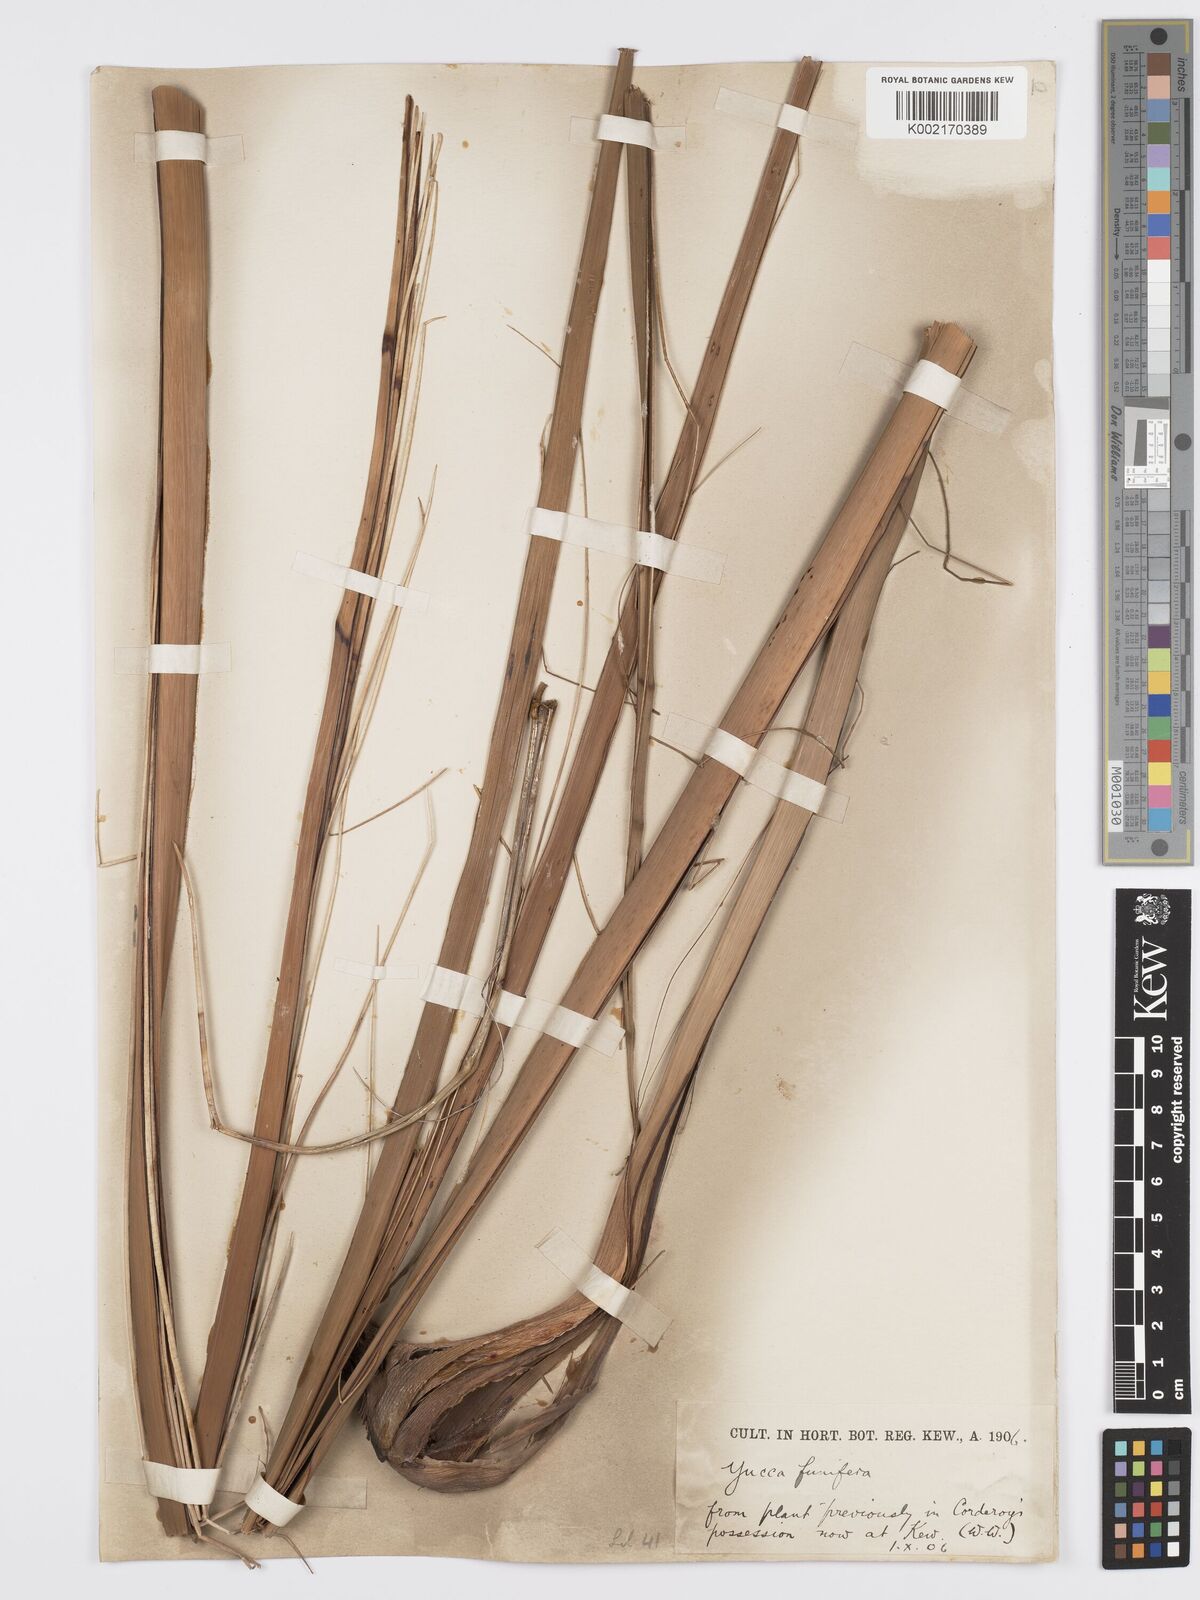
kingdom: Plantae
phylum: Tracheophyta
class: Liliopsida
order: Asparagales
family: Asparagaceae
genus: Hesperaloe
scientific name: Hesperaloe funifera
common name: Giant hesperaloe
